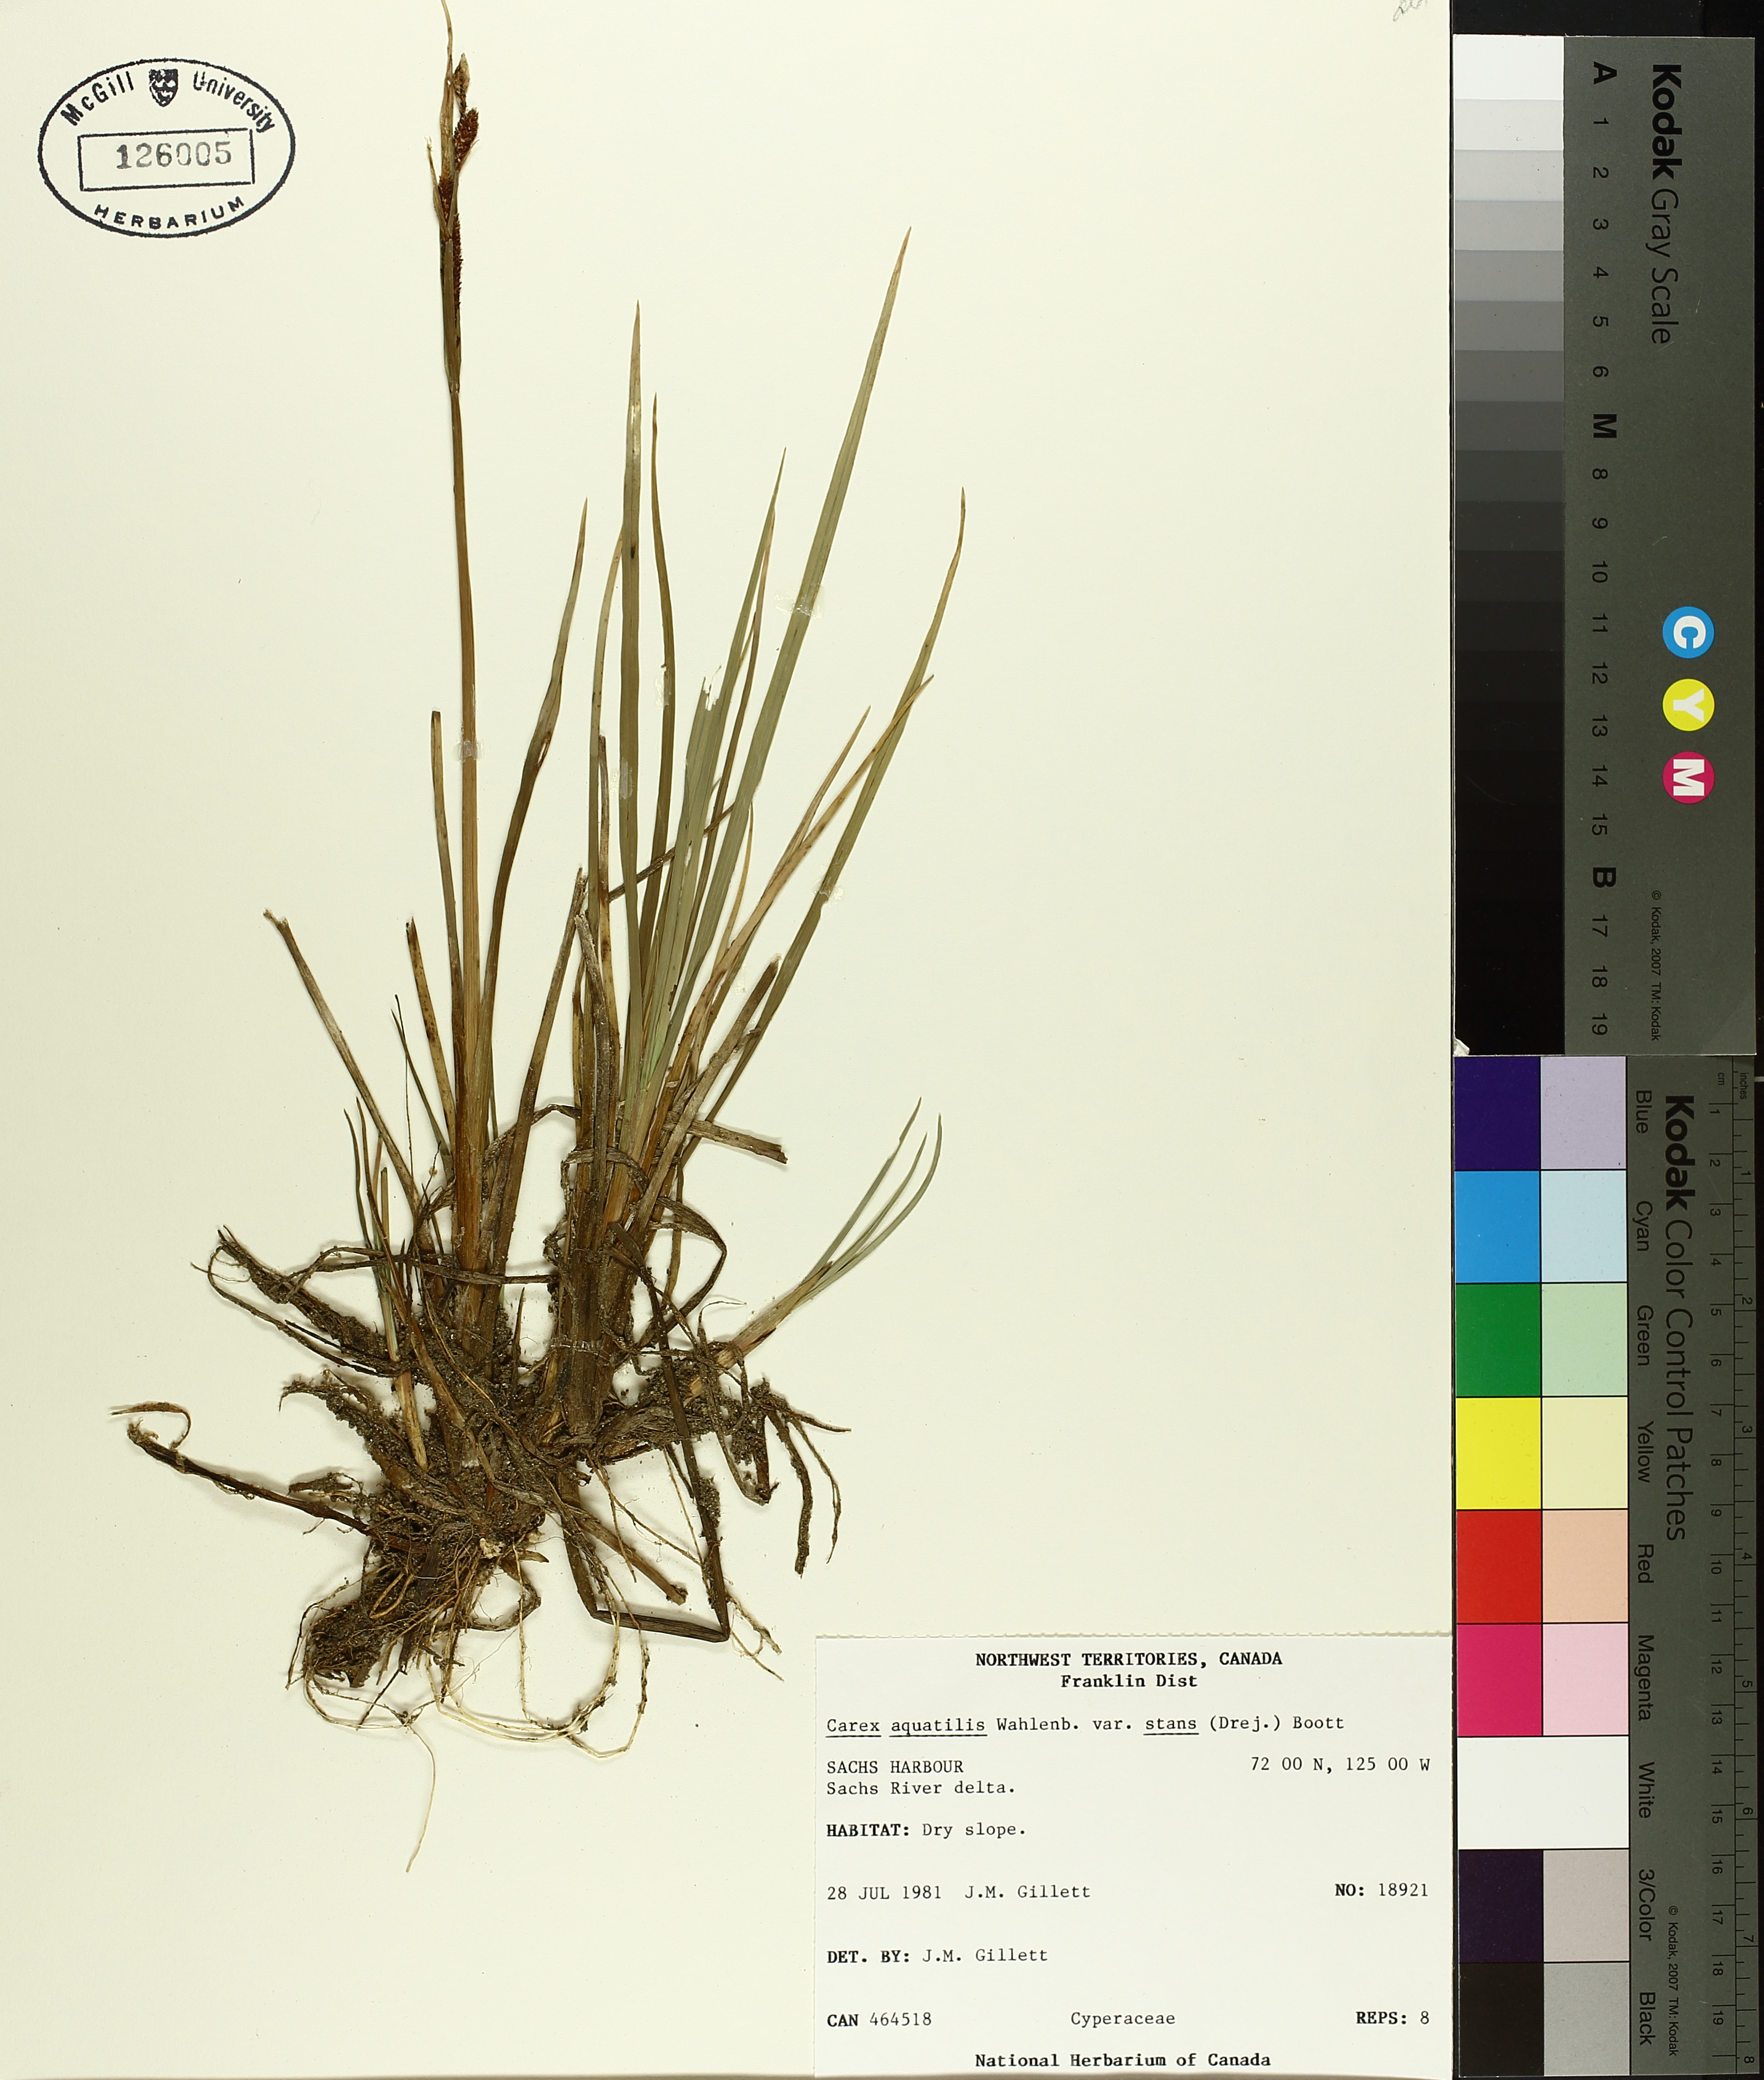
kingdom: Plantae
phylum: Tracheophyta
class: Liliopsida
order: Poales
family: Cyperaceae
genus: Carex
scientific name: Carex aquatilis
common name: Water sedge
